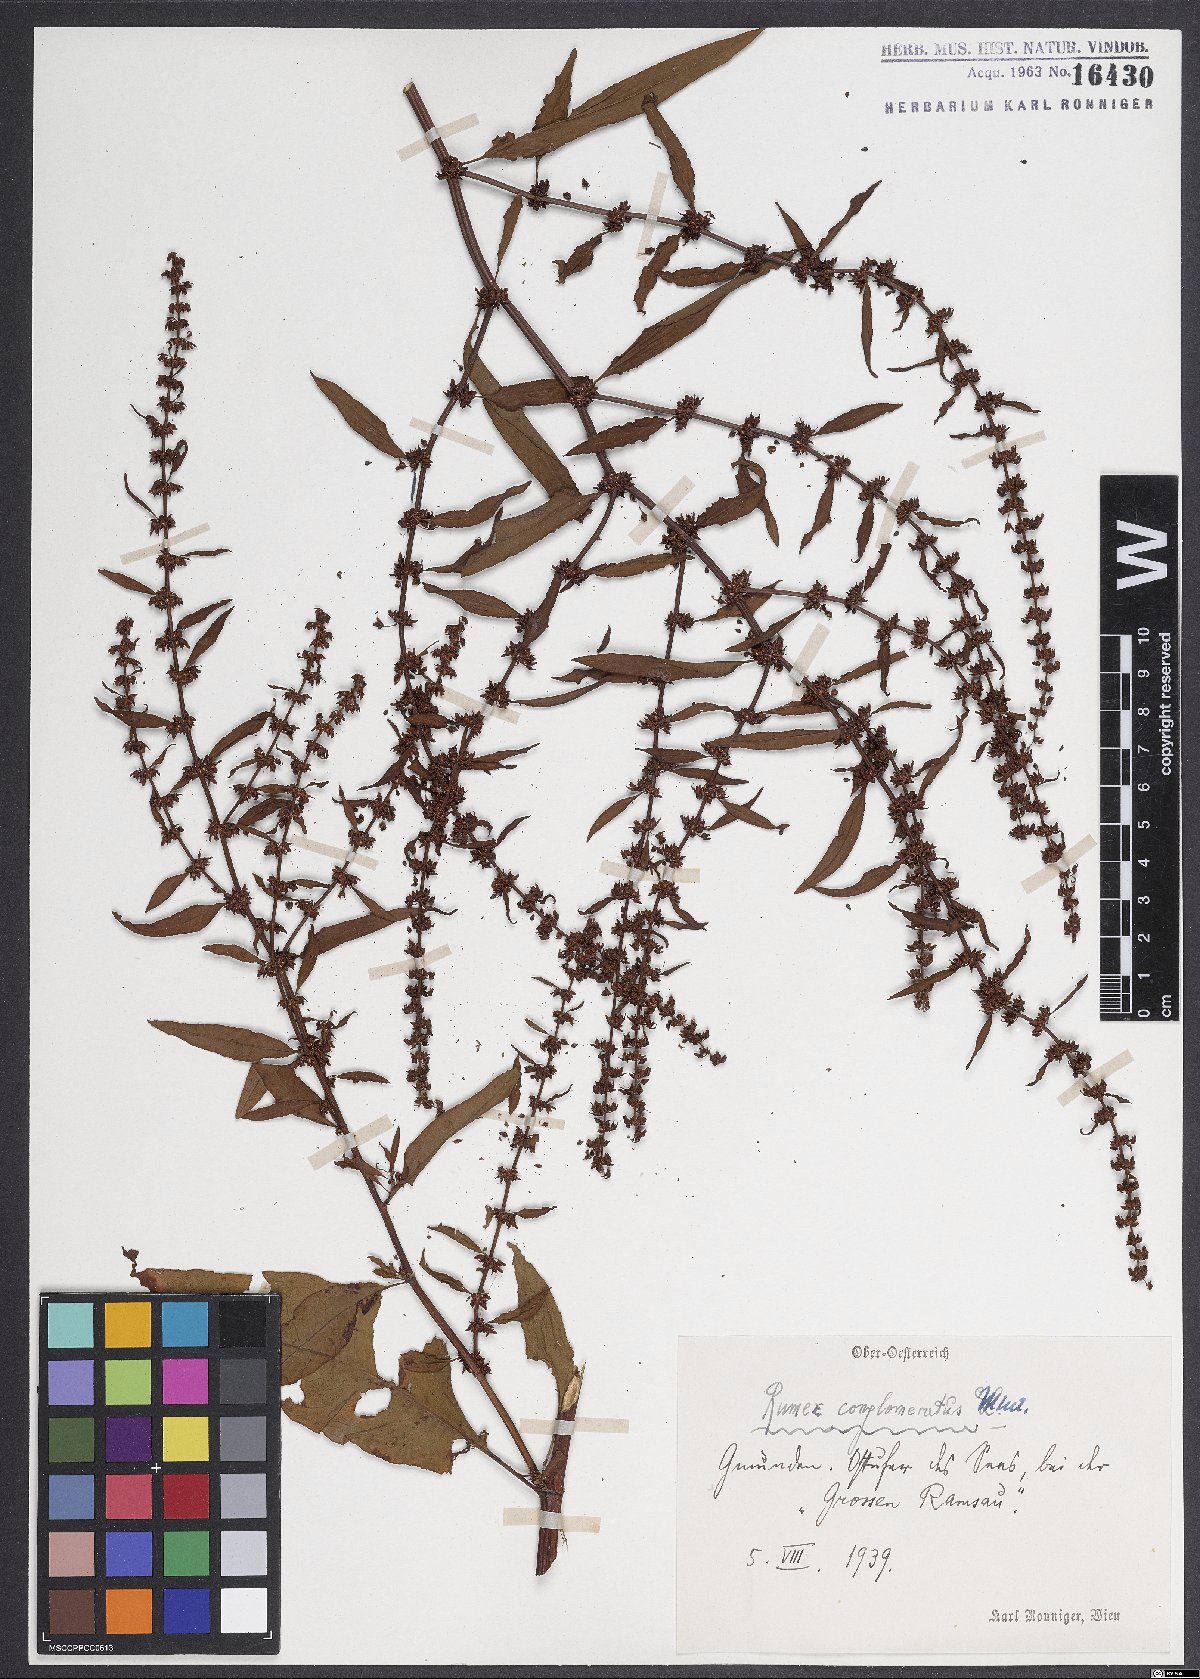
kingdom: Plantae
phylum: Tracheophyta
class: Magnoliopsida
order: Caryophyllales
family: Polygonaceae
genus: Rumex
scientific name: Rumex conglomeratus
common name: Clustered dock
